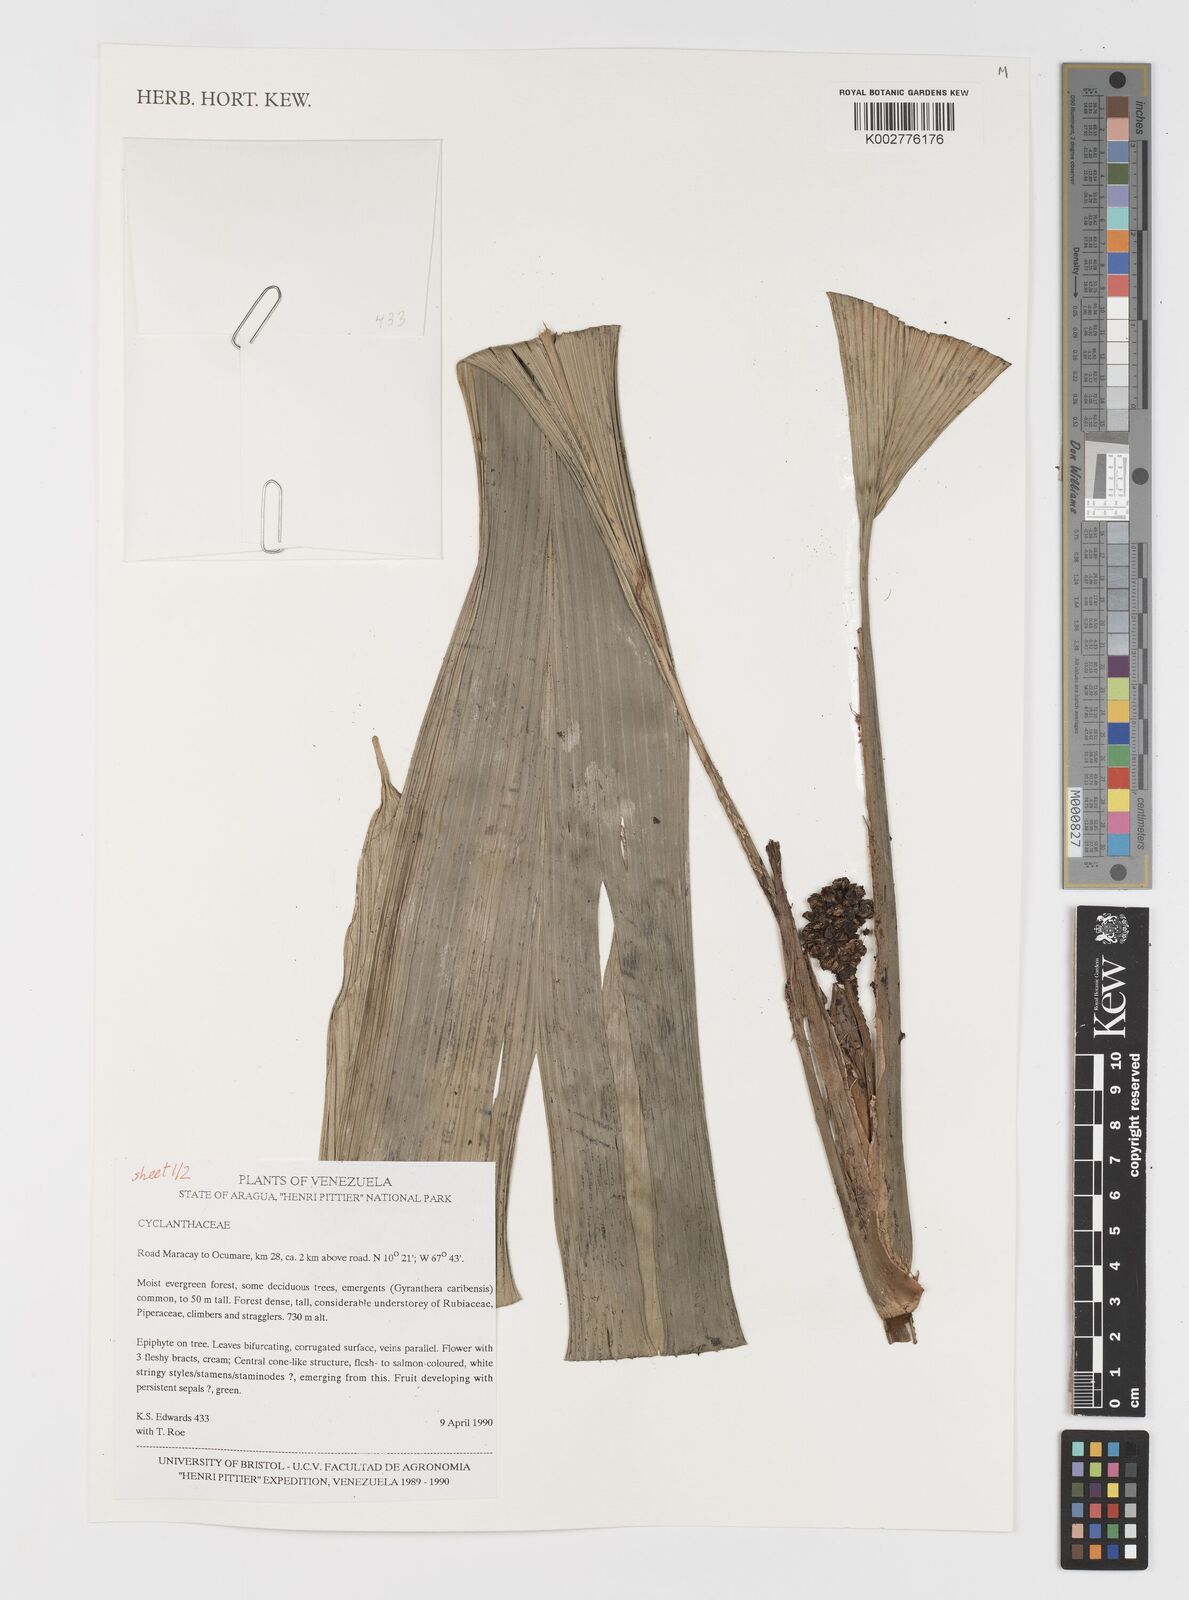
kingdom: Plantae
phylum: Tracheophyta
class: Liliopsida
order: Pandanales
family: Cyclanthaceae
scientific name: Cyclanthaceae
